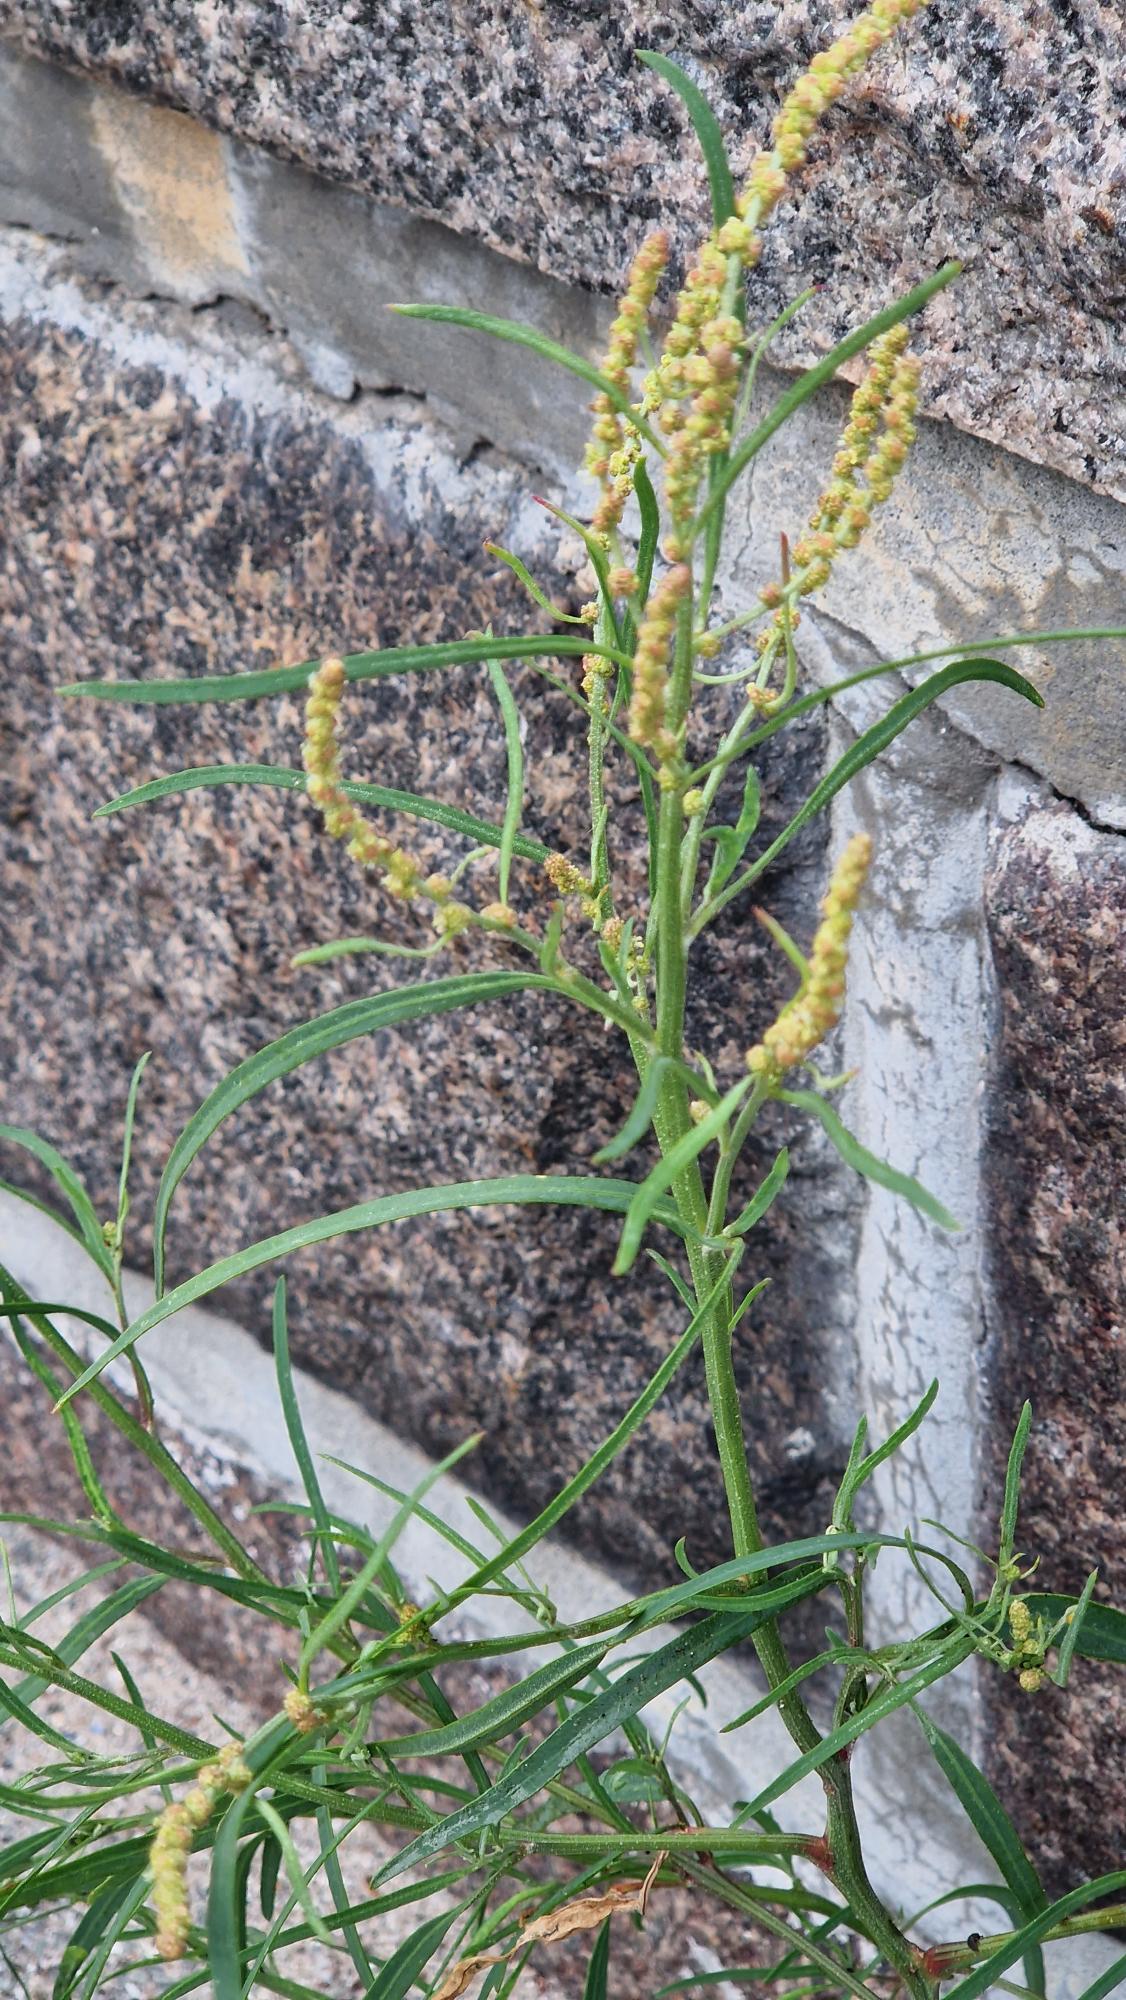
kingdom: Plantae
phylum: Tracheophyta
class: Magnoliopsida
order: Caryophyllales
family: Amaranthaceae
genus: Atriplex
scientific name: Atriplex littoralis
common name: Strand-mælde
